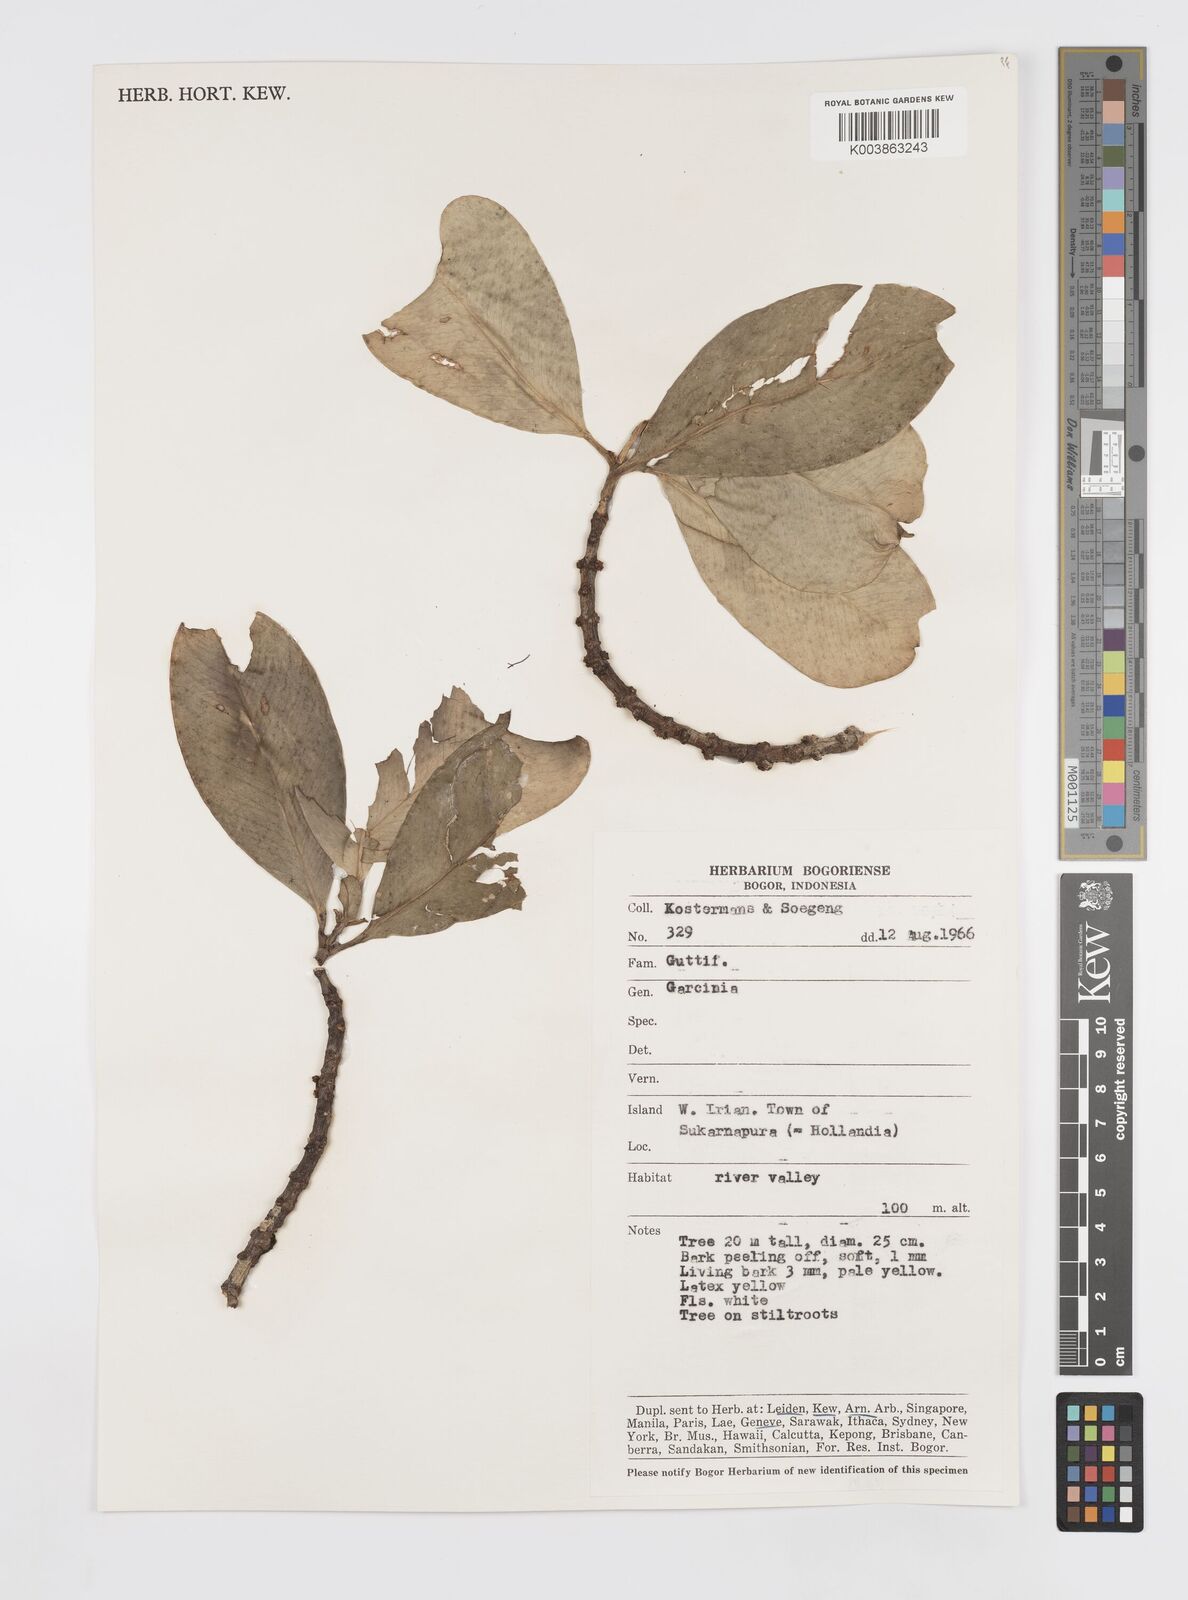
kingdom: Plantae
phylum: Tracheophyta
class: Magnoliopsida
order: Malpighiales
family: Clusiaceae
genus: Garcinia
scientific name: Garcinia
